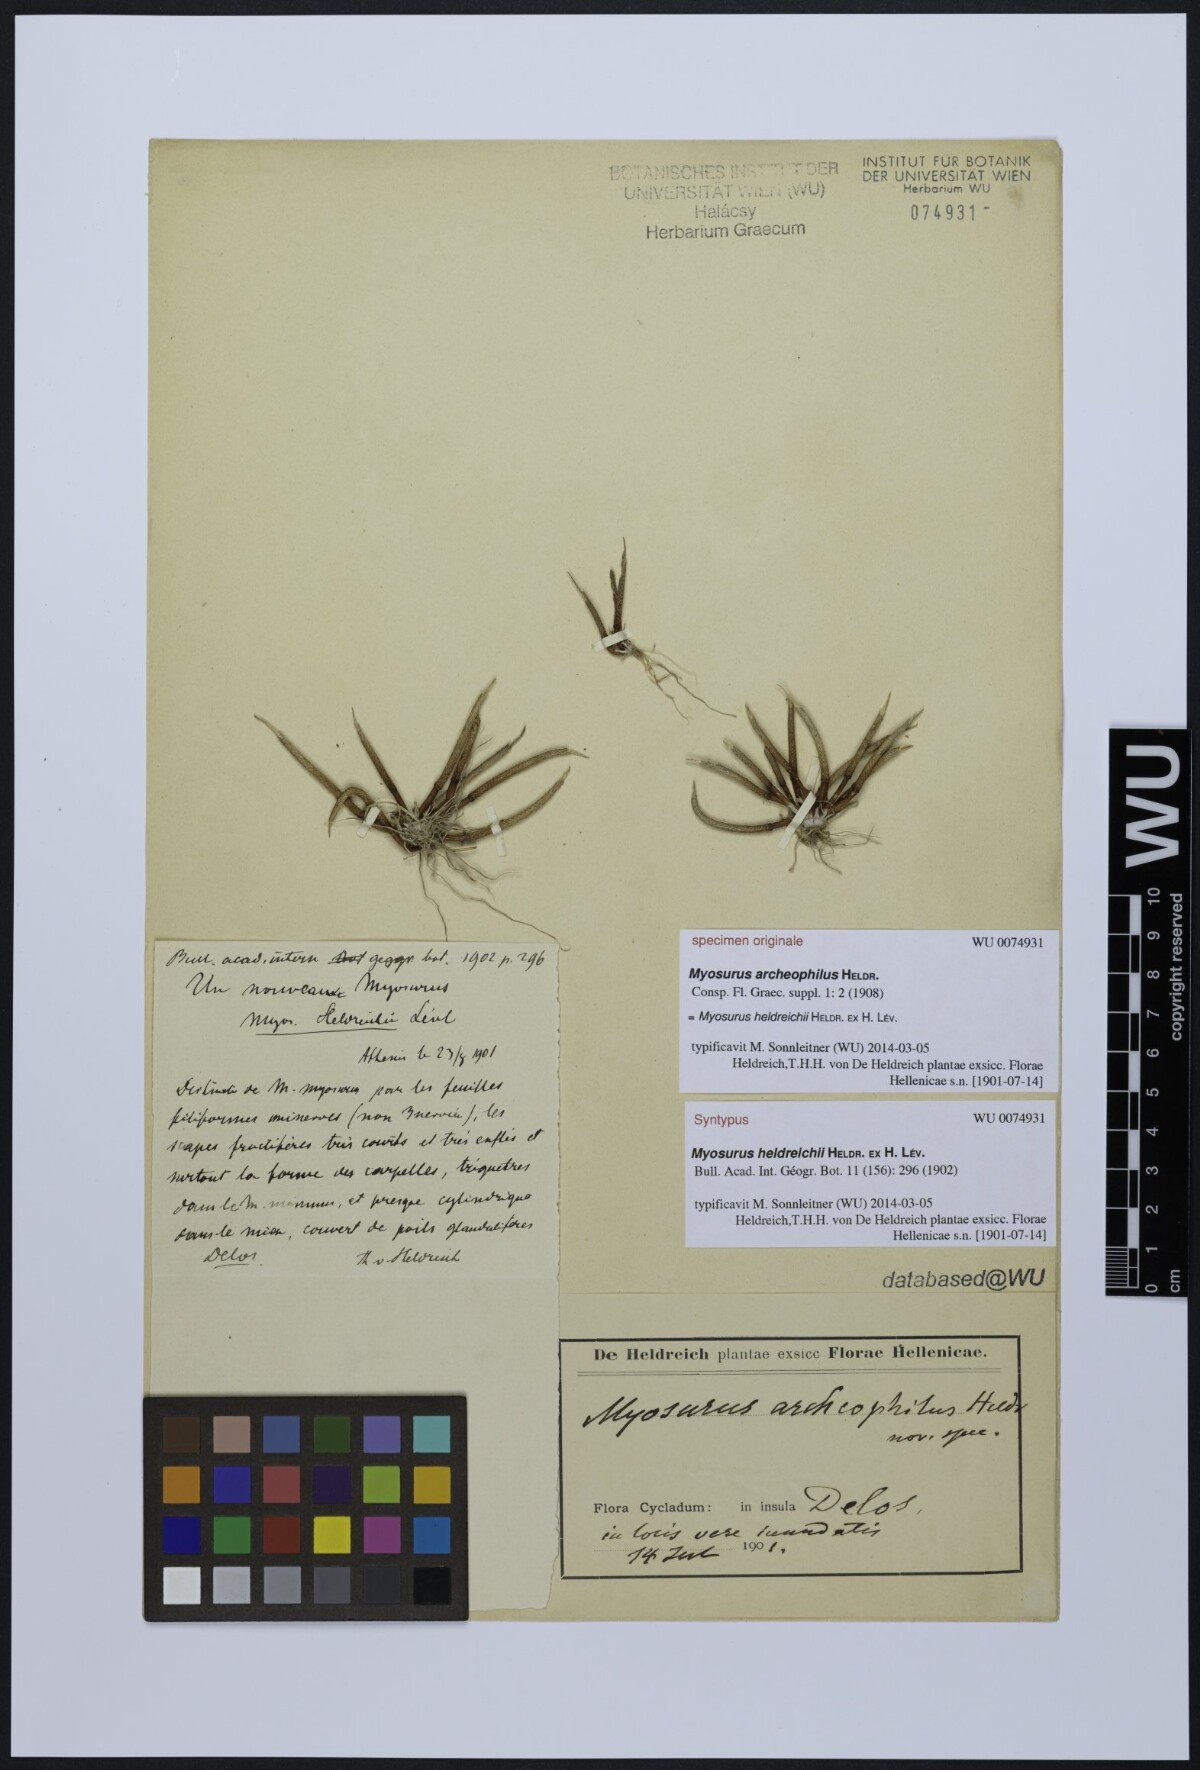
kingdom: Plantae
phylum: Tracheophyta
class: Magnoliopsida
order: Ranunculales
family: Ranunculaceae
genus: Myosurus
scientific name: Myosurus breviscapus
